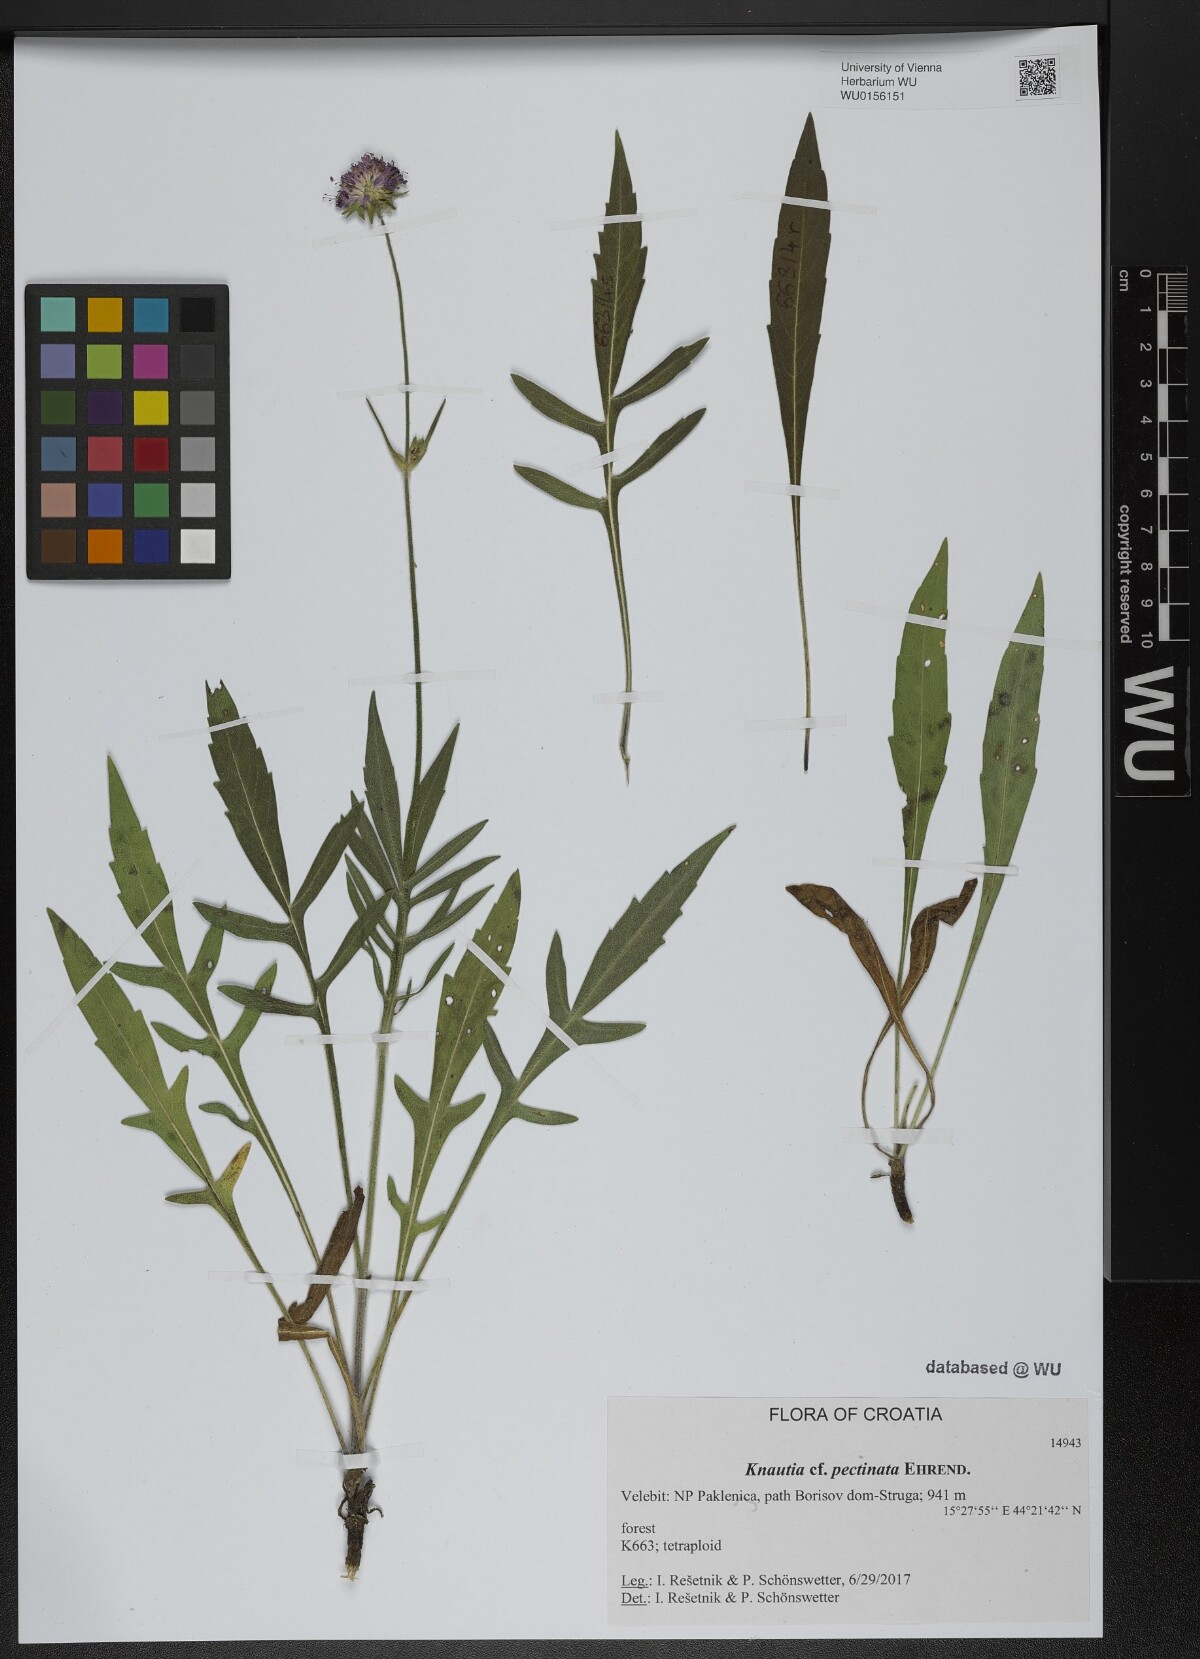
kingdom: Plantae
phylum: Tracheophyta
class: Magnoliopsida
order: Dipsacales
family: Caprifoliaceae
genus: Knautia
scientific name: Knautia pectinata
